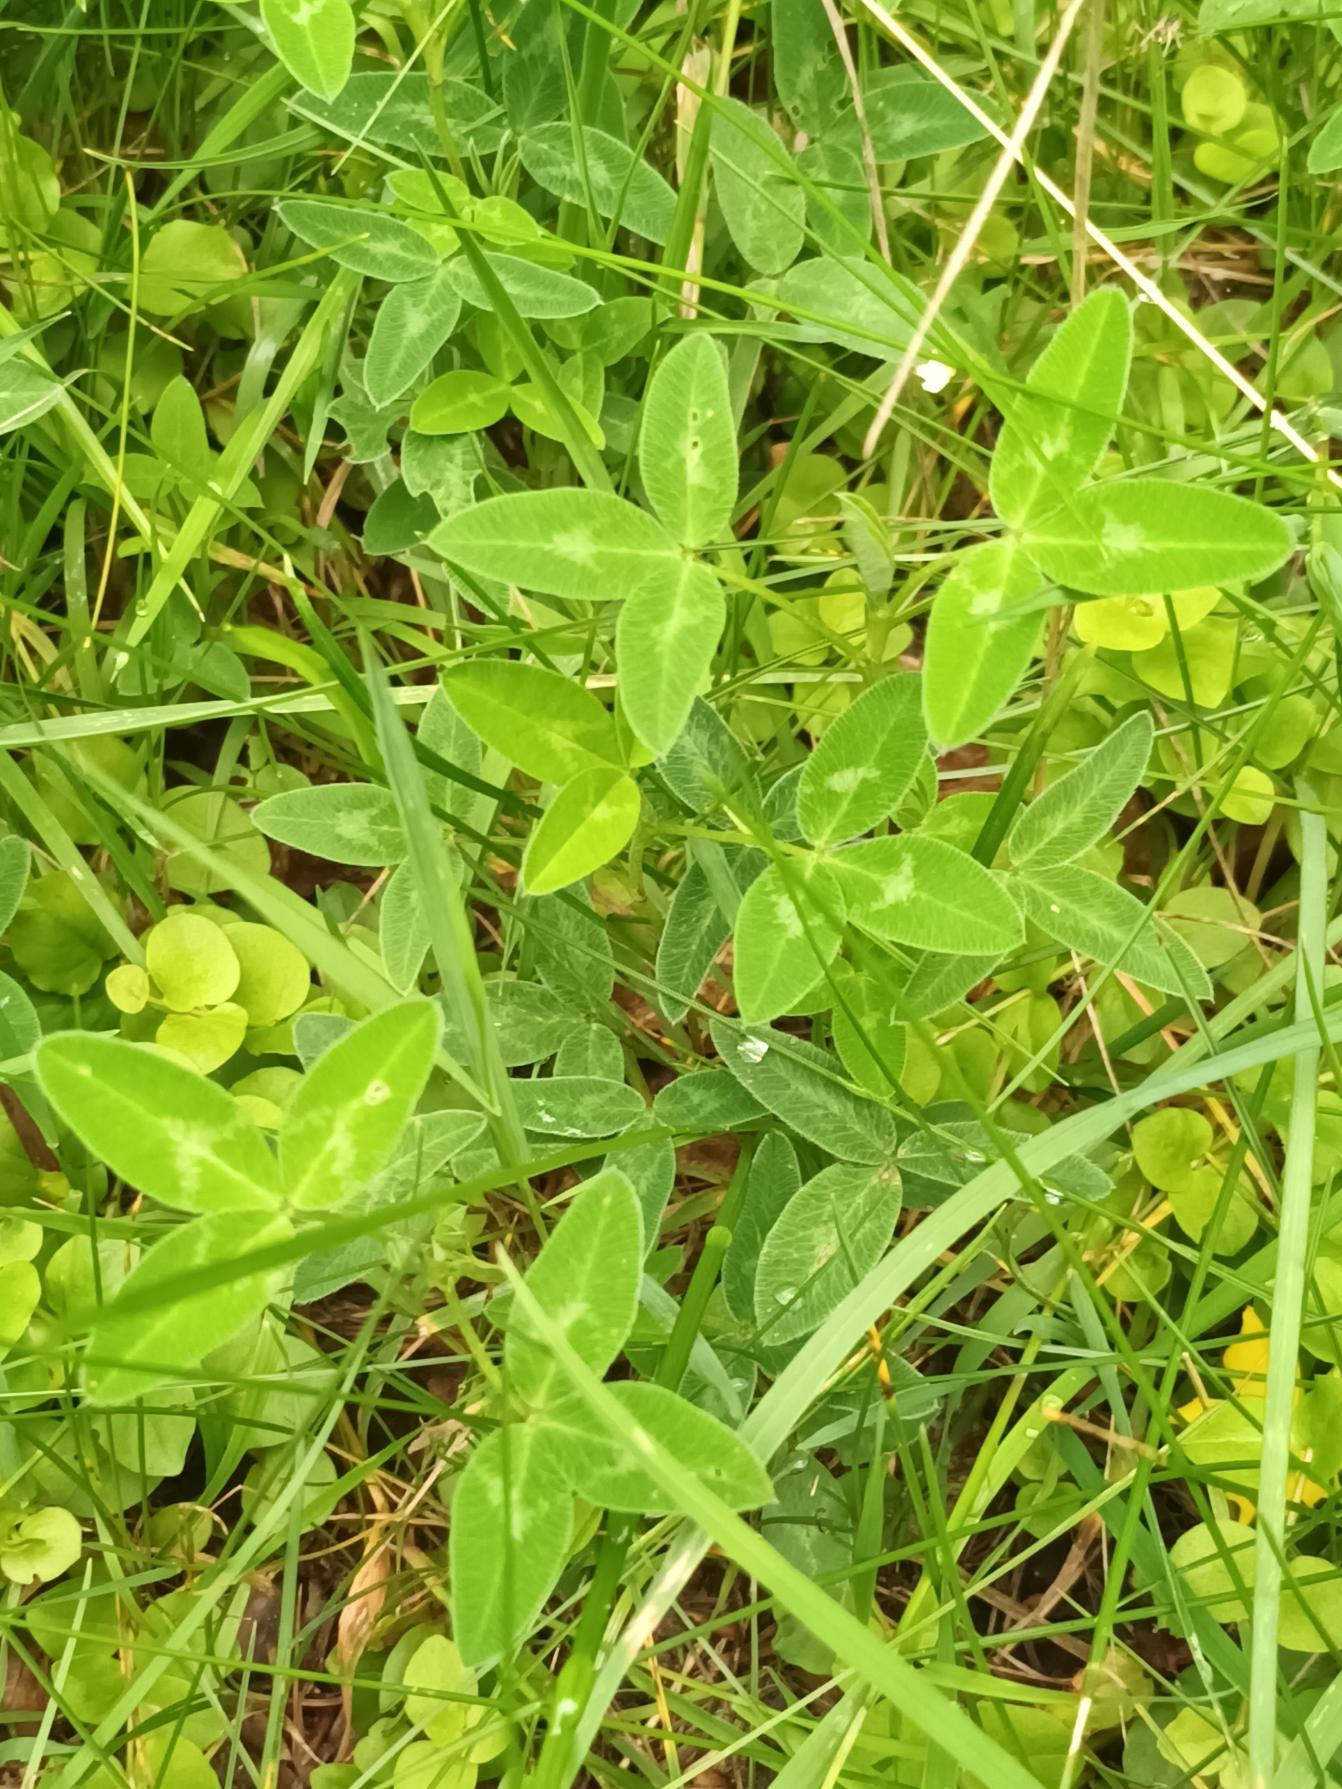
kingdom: Plantae
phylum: Tracheophyta
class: Magnoliopsida
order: Fabales
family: Fabaceae
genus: Trifolium
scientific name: Trifolium medium
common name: Bugtet kløver
